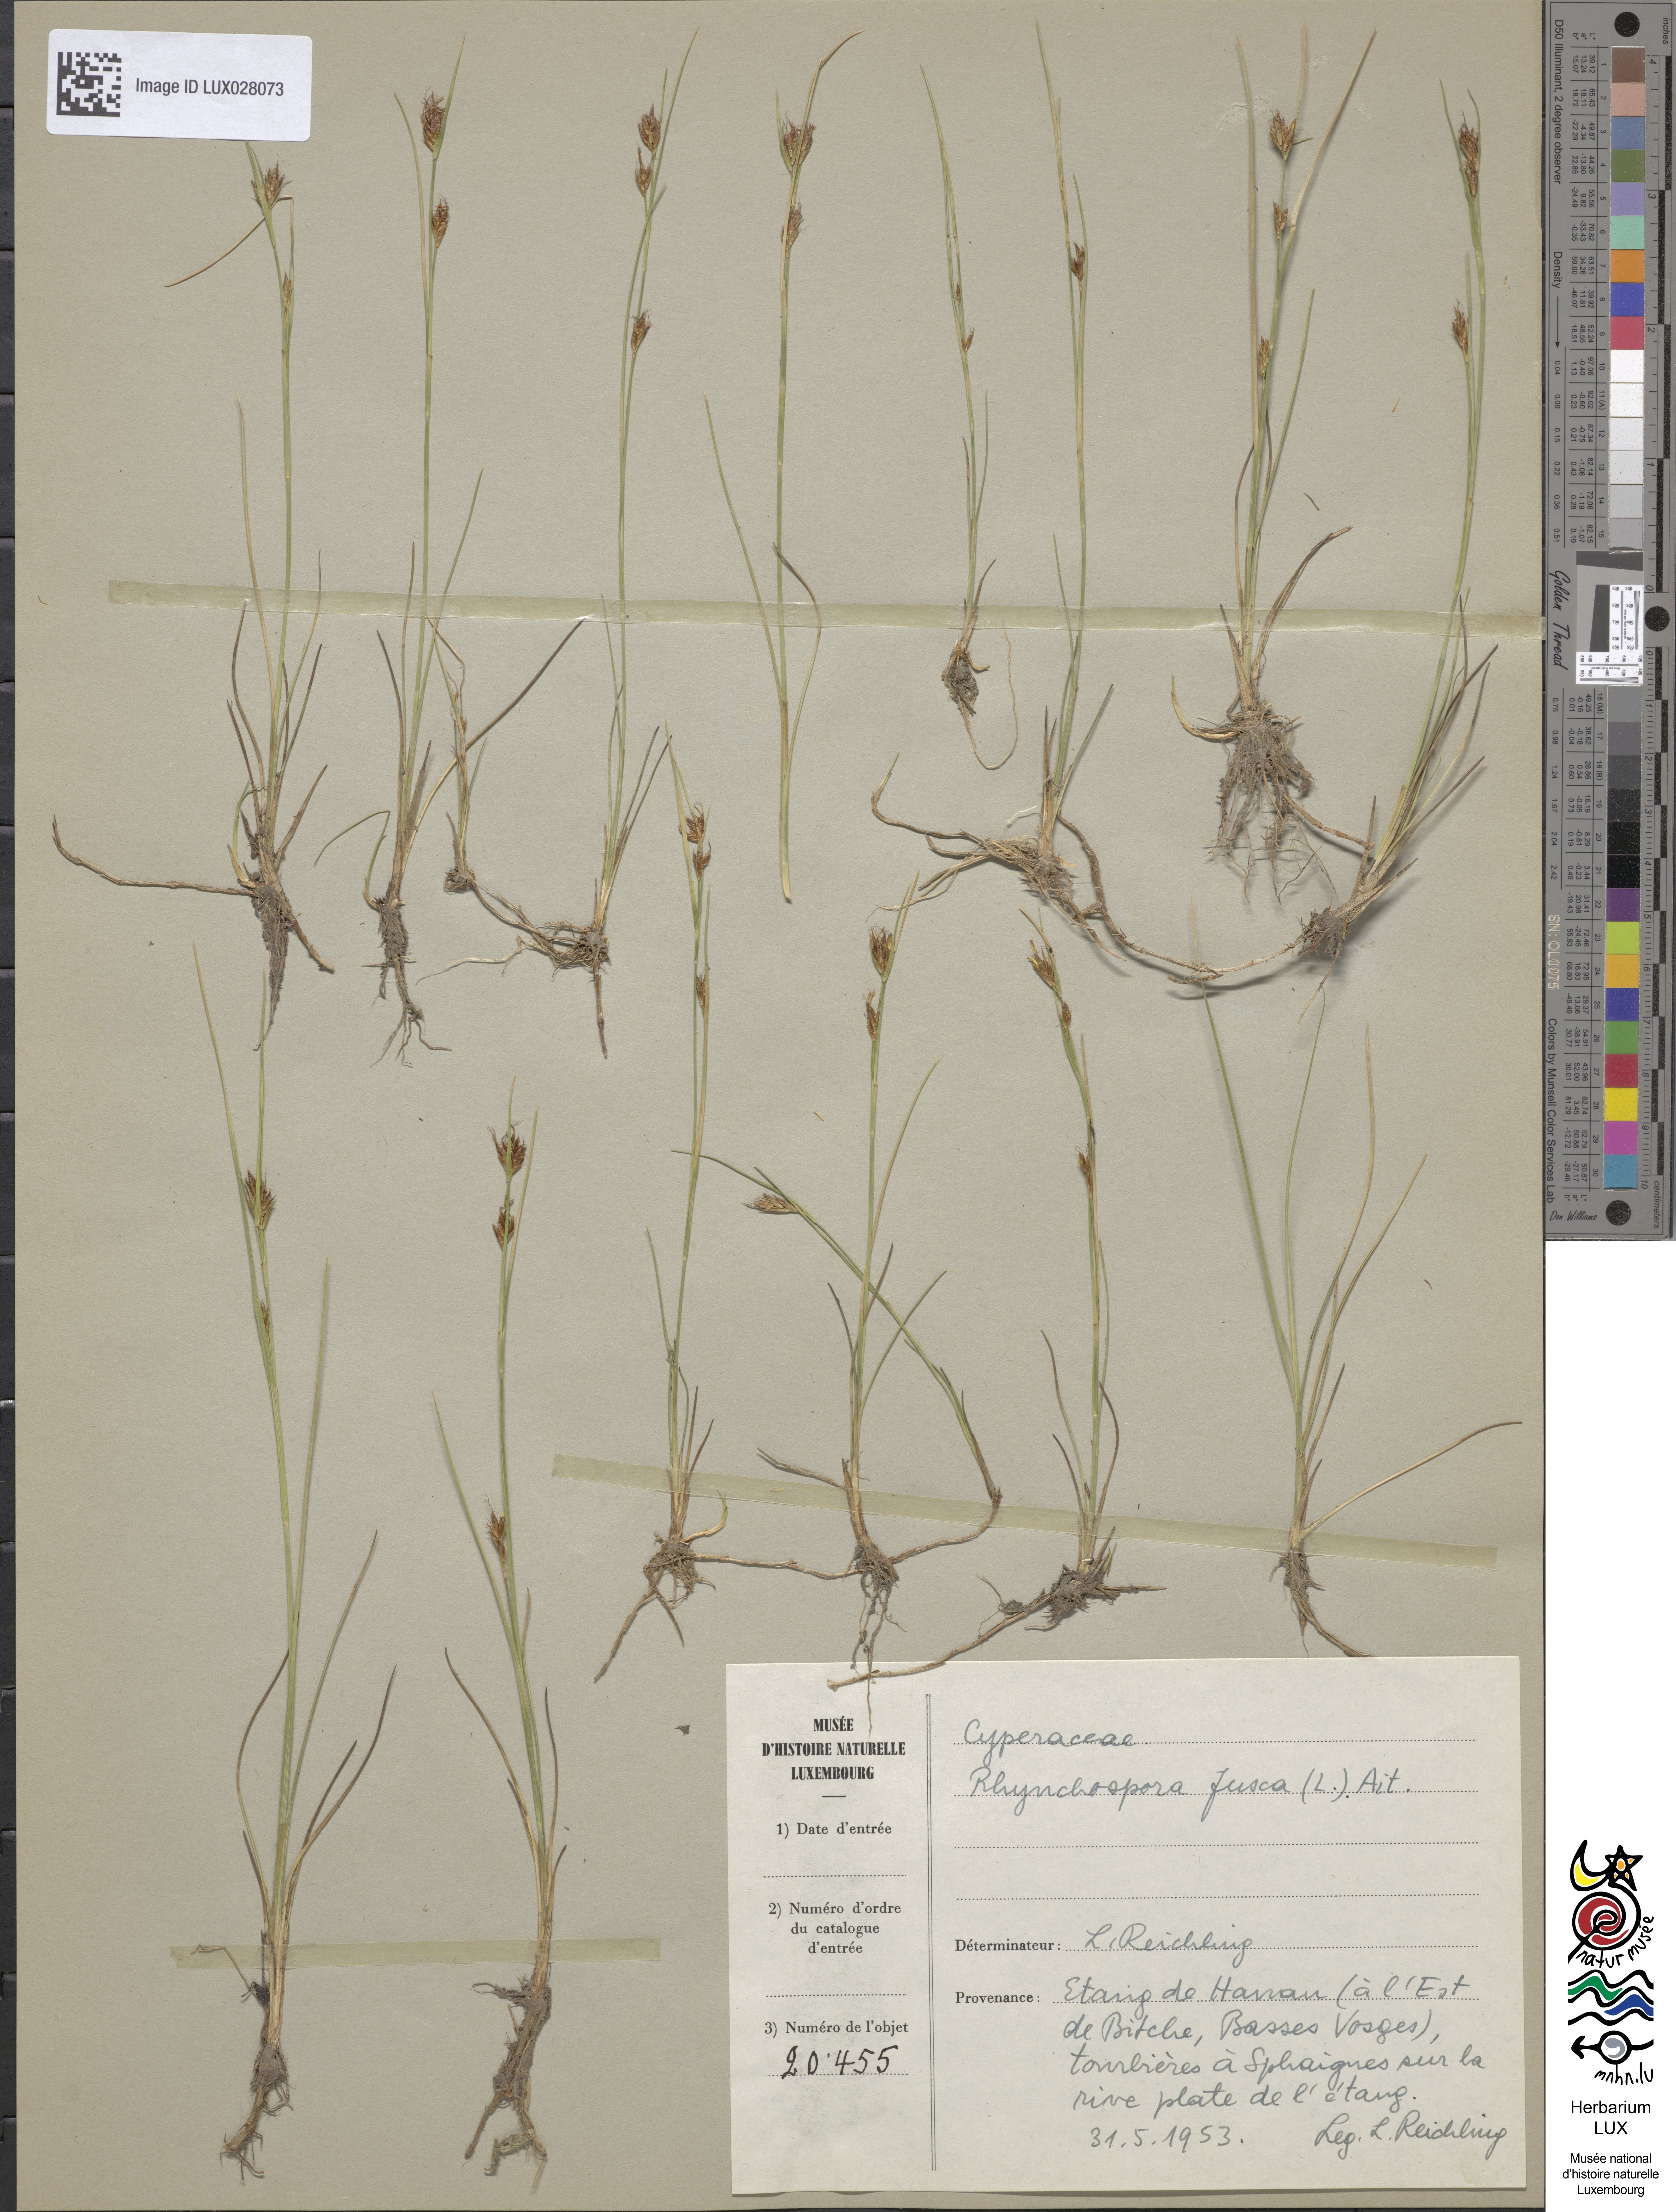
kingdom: Plantae
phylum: Tracheophyta
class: Liliopsida
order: Poales
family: Cyperaceae
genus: Rhynchospora
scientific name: Rhynchospora fusca
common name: Brown beak-sedge
